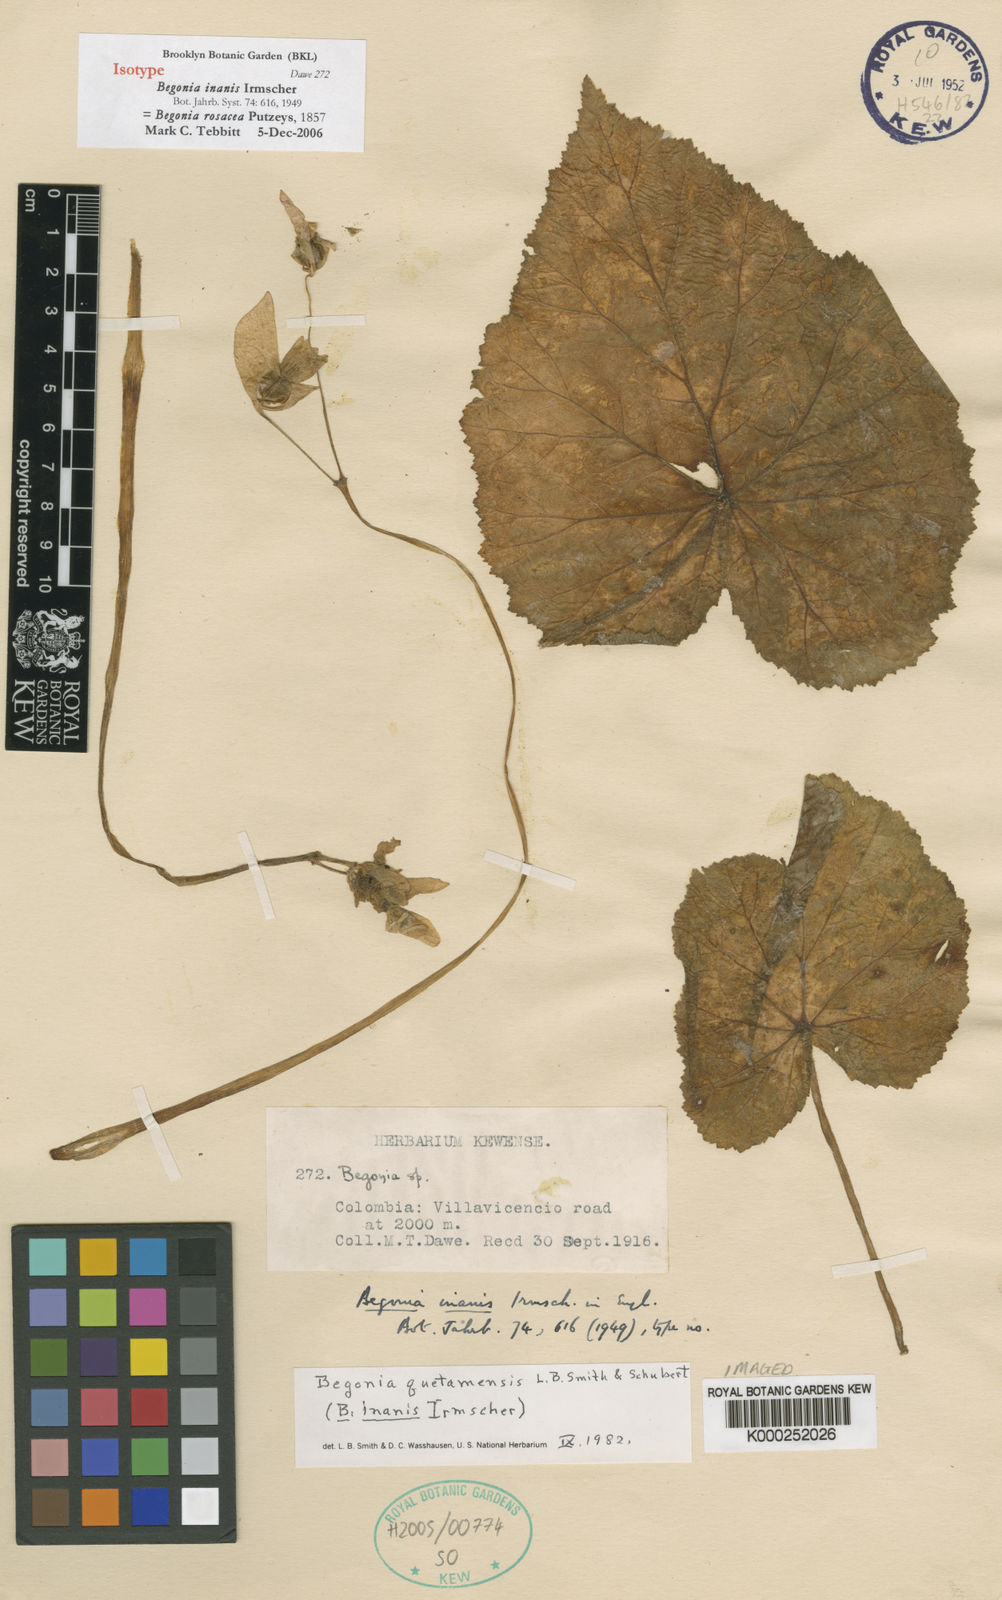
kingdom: Plantae
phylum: Tracheophyta
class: Magnoliopsida
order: Cucurbitales
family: Begoniaceae
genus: Begonia
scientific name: Begonia novogranatae
